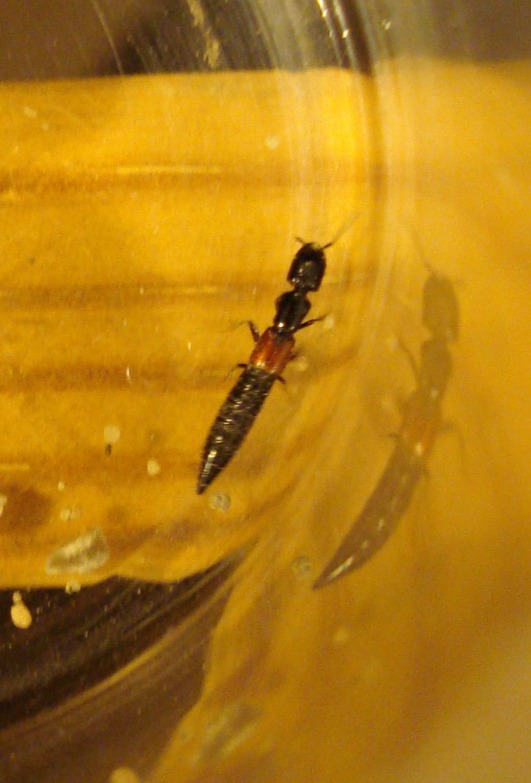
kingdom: Animalia
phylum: Arthropoda
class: Insecta
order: Coleoptera
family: Staphylinidae
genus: Gauropterus
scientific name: Gauropterus fulgidus
